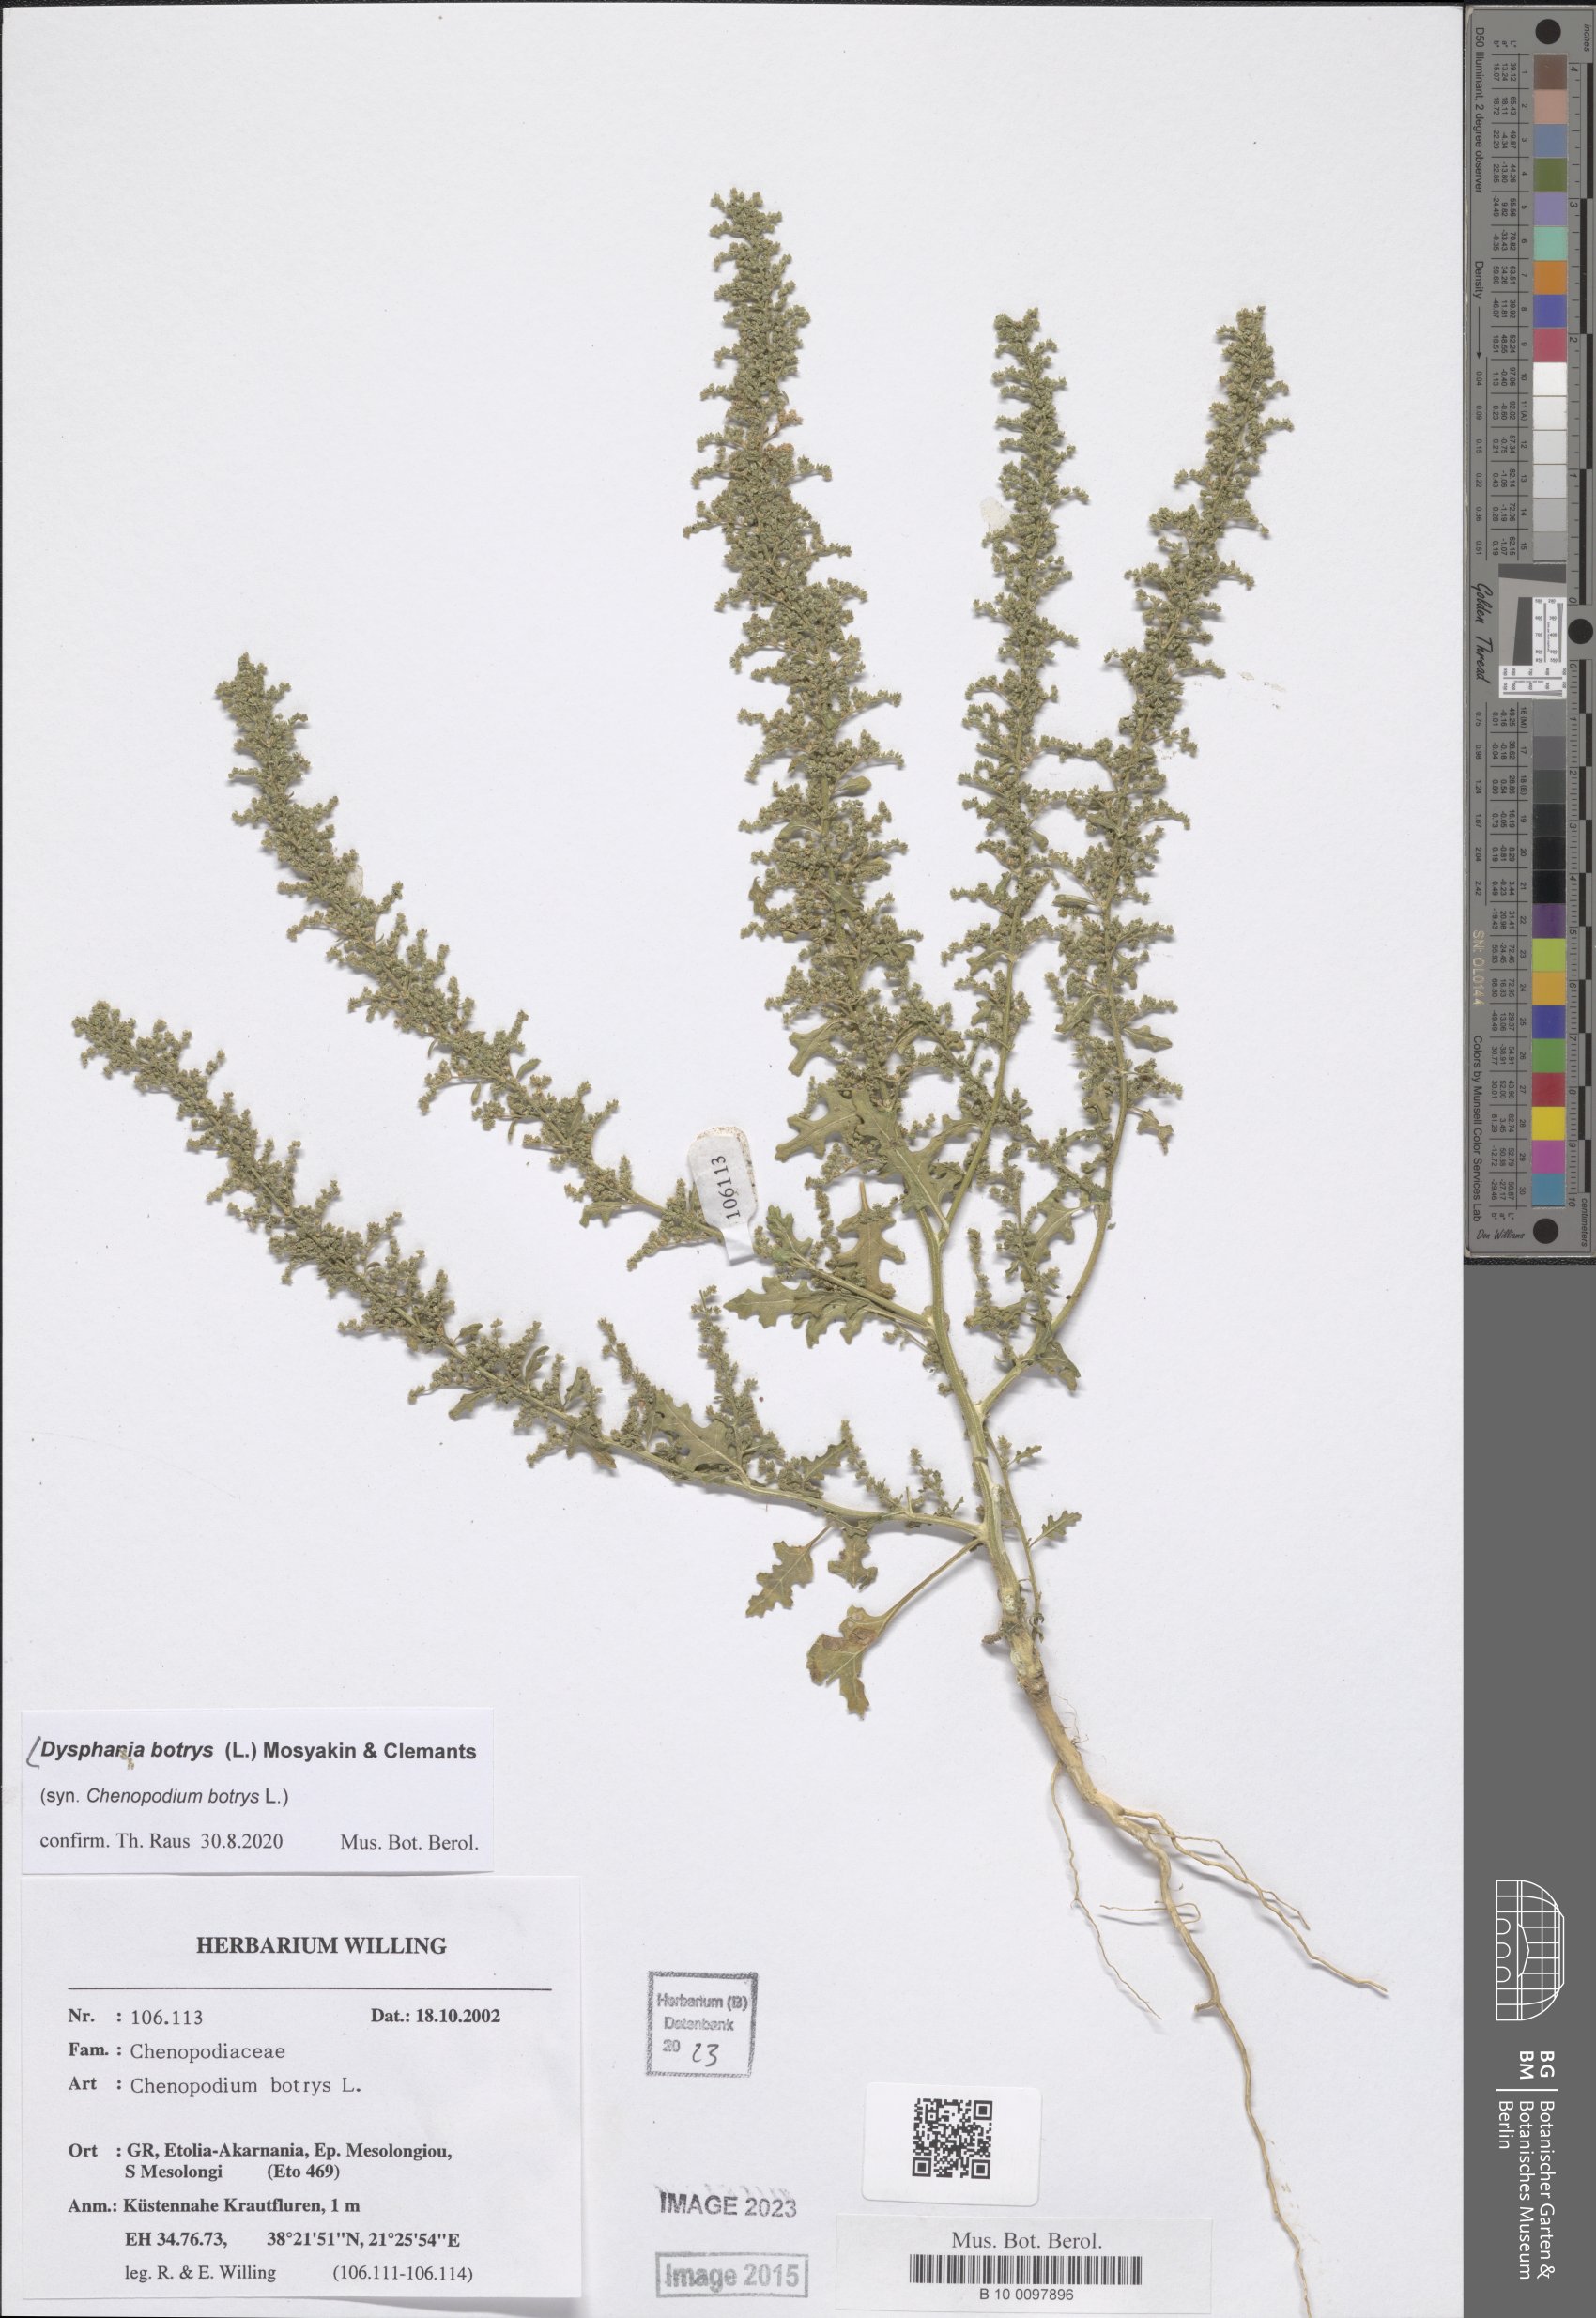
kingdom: Plantae
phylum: Tracheophyta
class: Magnoliopsida
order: Caryophyllales
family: Amaranthaceae
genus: Dysphania
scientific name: Dysphania botrys
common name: Feather-geranium
